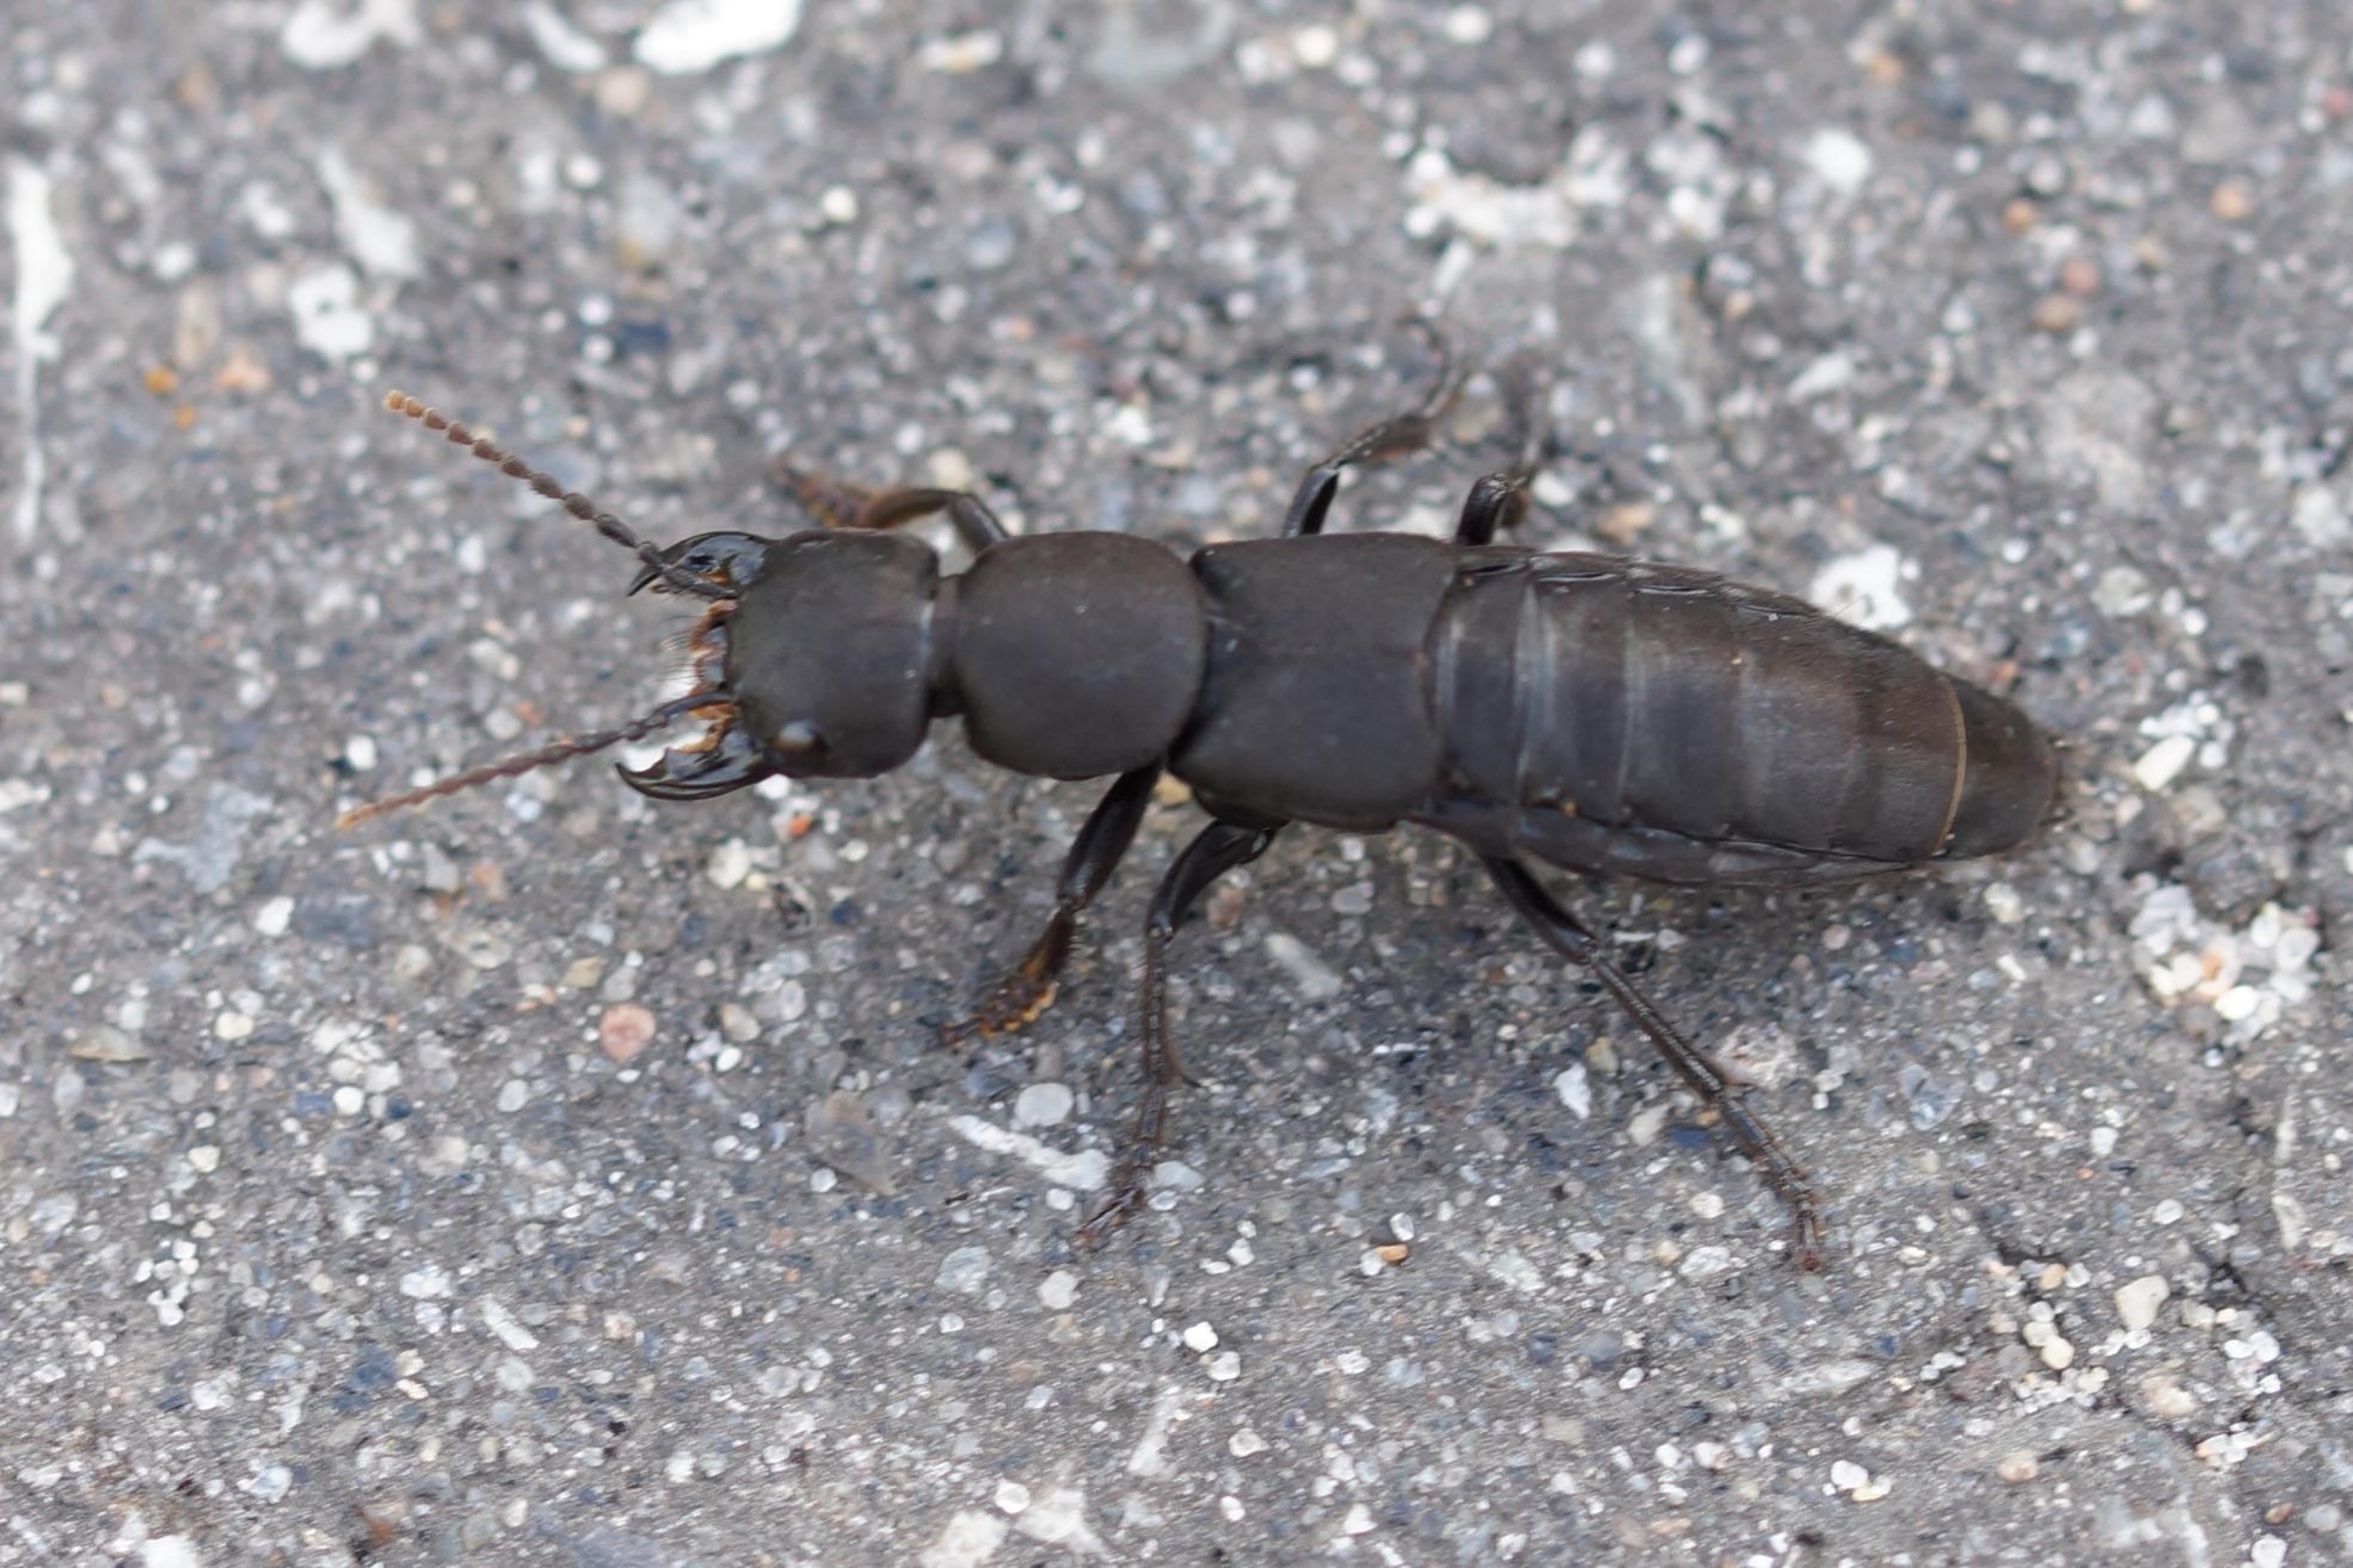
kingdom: Animalia
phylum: Arthropoda
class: Insecta
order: Coleoptera
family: Staphylinidae
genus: Ocypus
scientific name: Ocypus olens
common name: Stor rovbille
